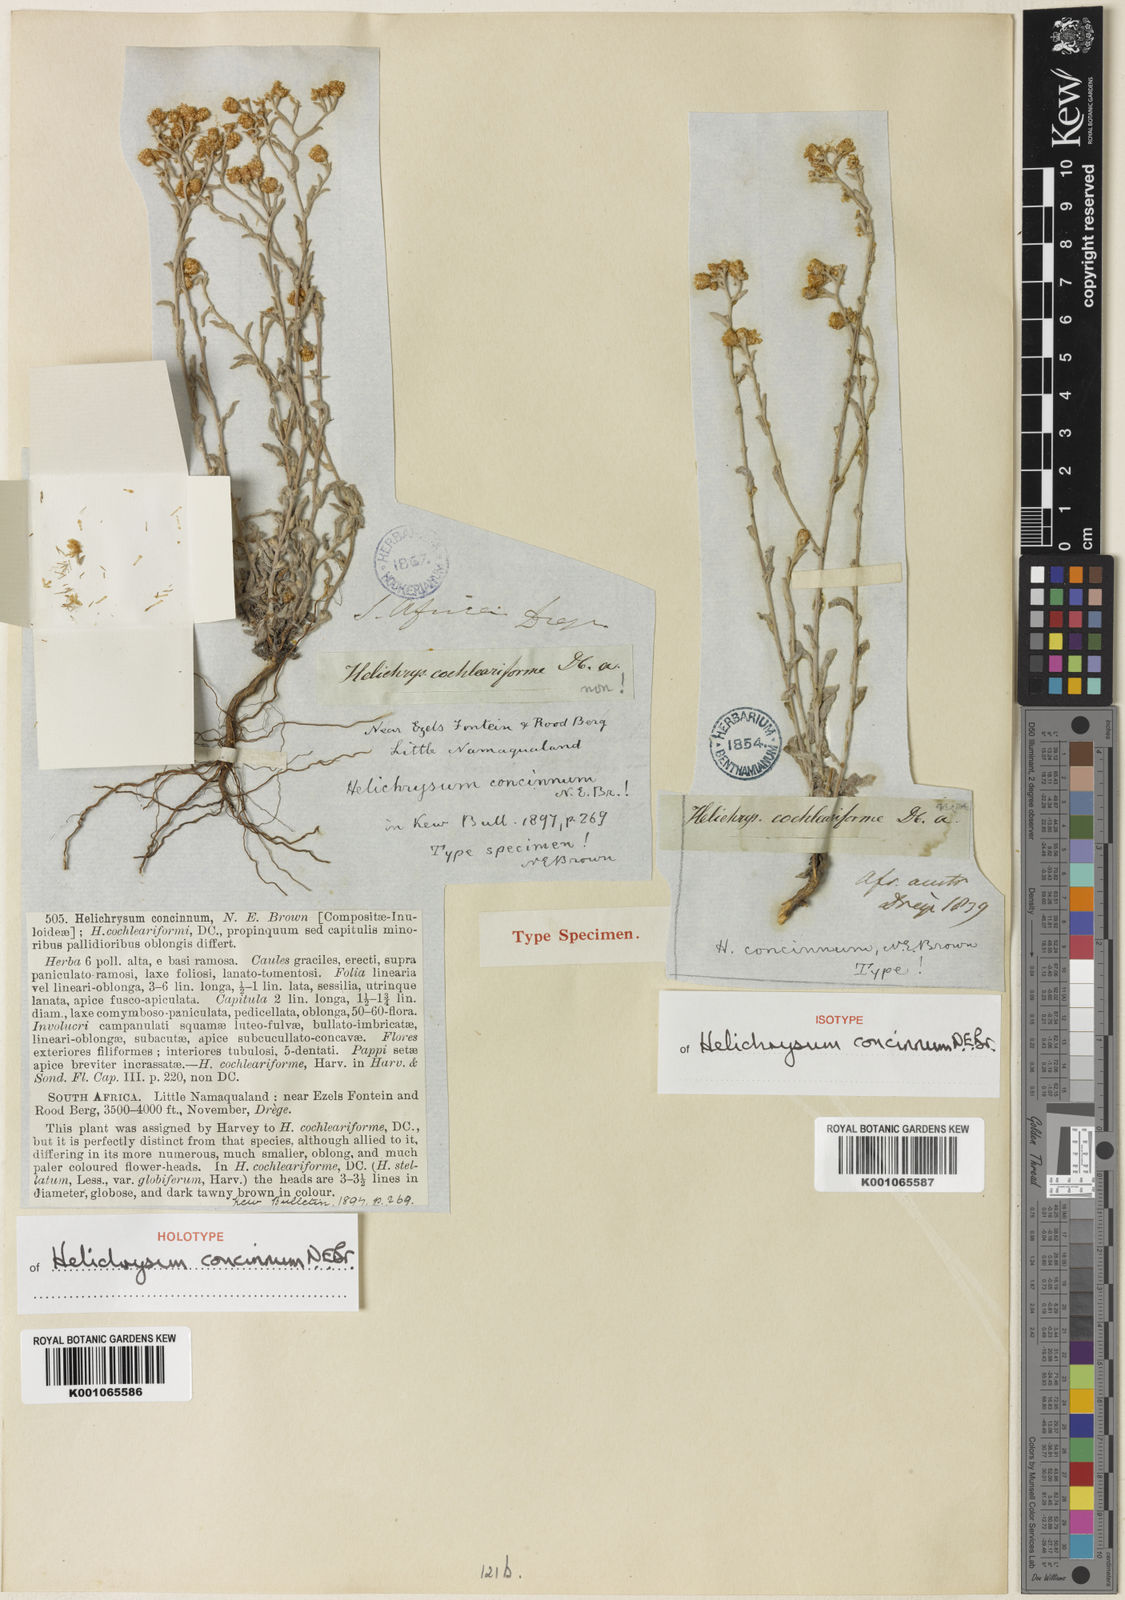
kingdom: Plantae
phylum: Tracheophyta
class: Magnoliopsida
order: Asterales
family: Asteraceae
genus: Helichrysum
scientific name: Helichrysum pulchellum
